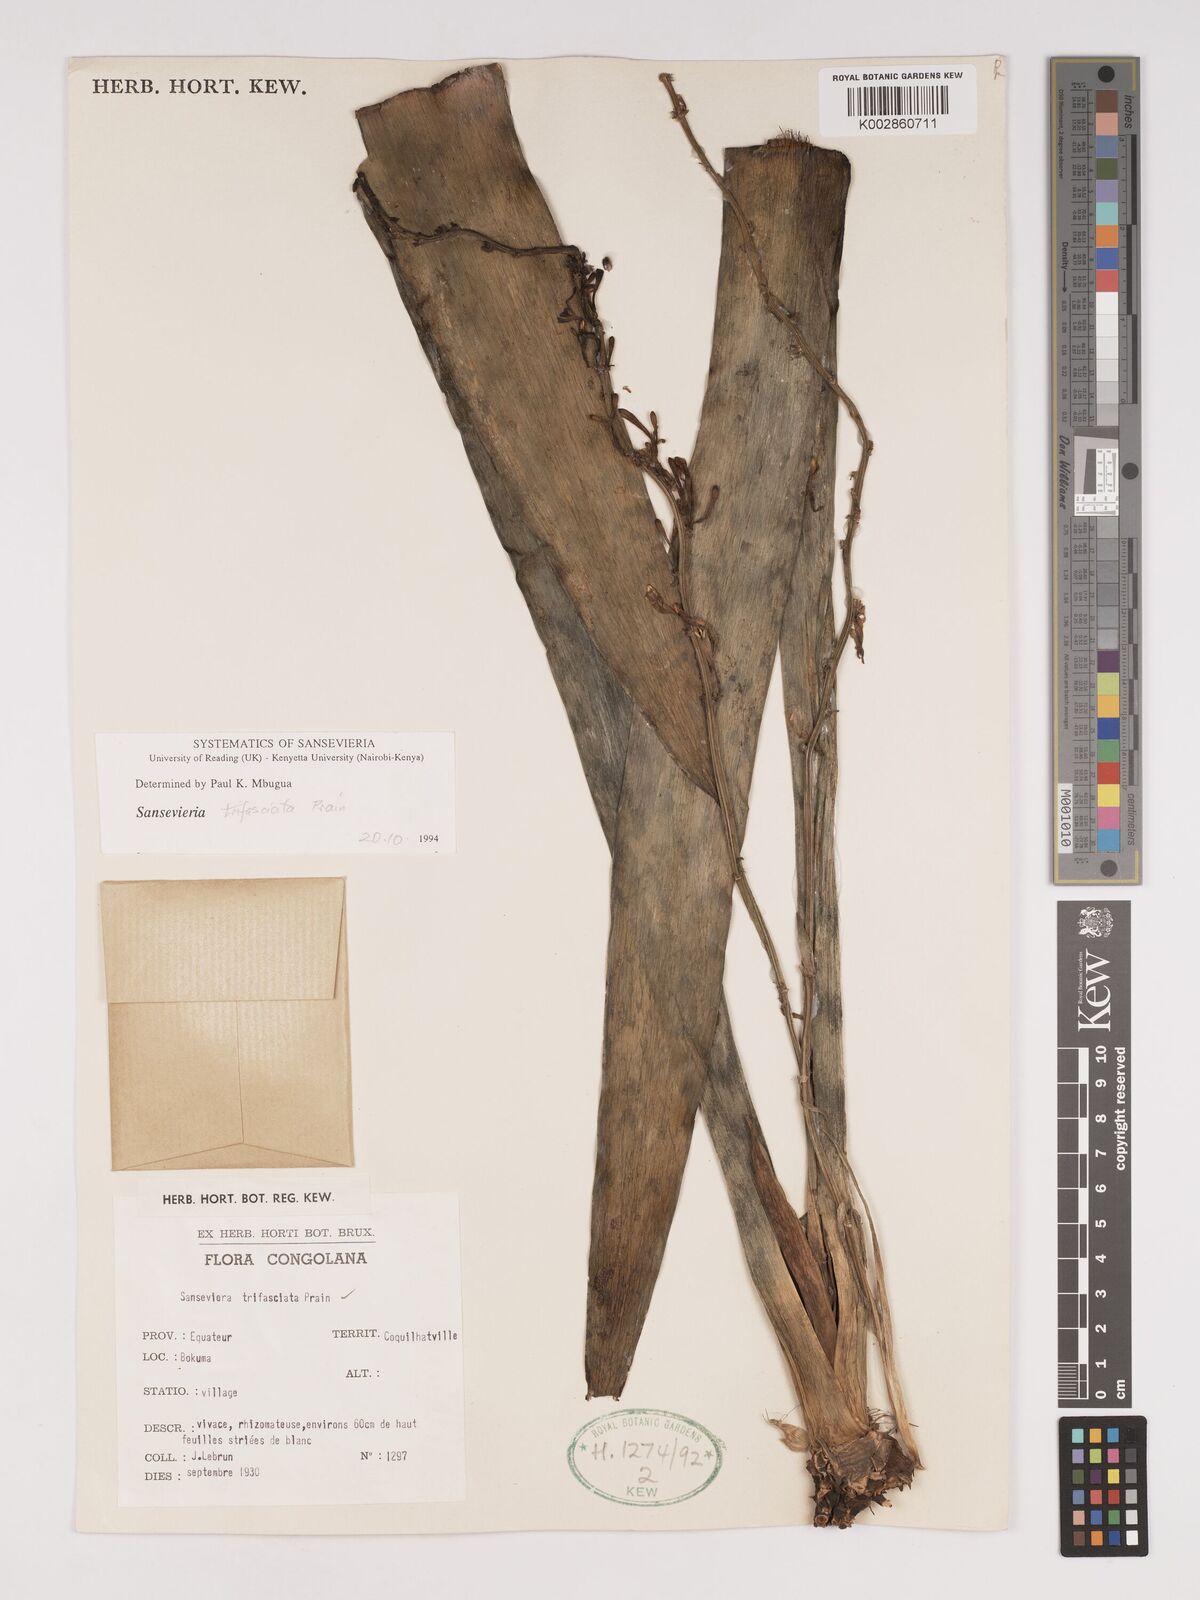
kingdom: Plantae
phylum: Tracheophyta
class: Liliopsida
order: Asparagales
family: Asparagaceae
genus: Dracaena
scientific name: Dracaena trifasciata
